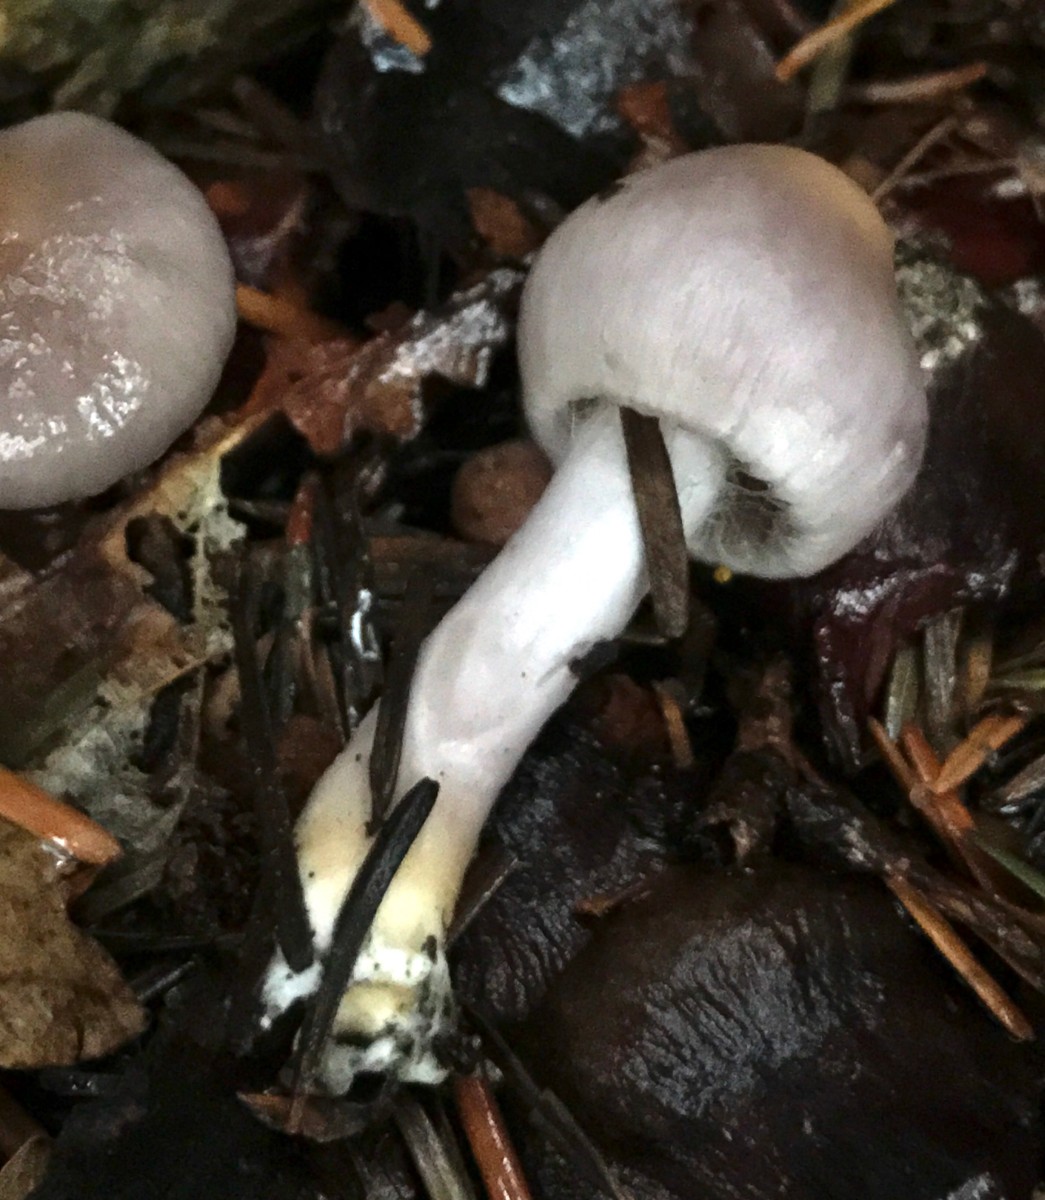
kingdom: Fungi
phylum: Basidiomycota
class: Agaricomycetes
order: Agaricales
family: Inocybaceae
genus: Inocybe
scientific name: Inocybe geophylla
